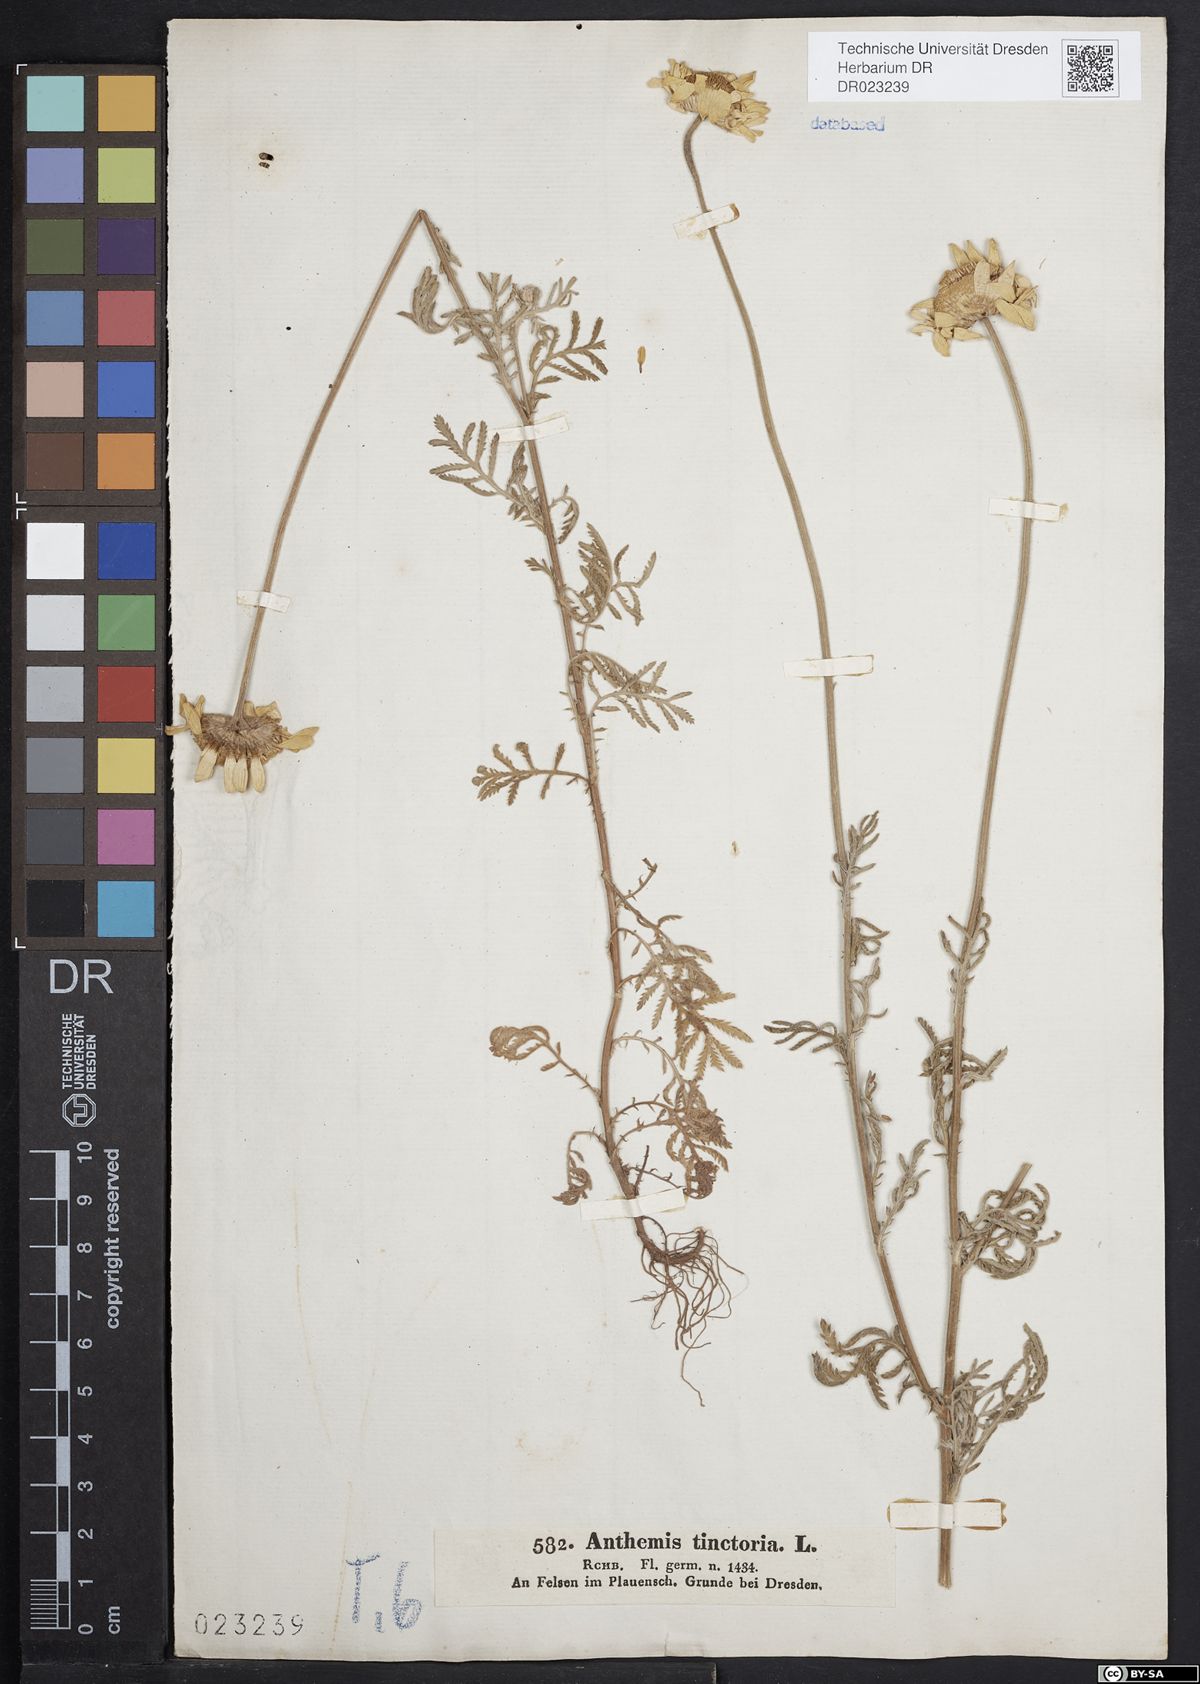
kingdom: Plantae
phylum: Tracheophyta
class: Magnoliopsida
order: Asterales
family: Asteraceae
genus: Cota
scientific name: Cota tinctoria
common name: Golden chamomile
